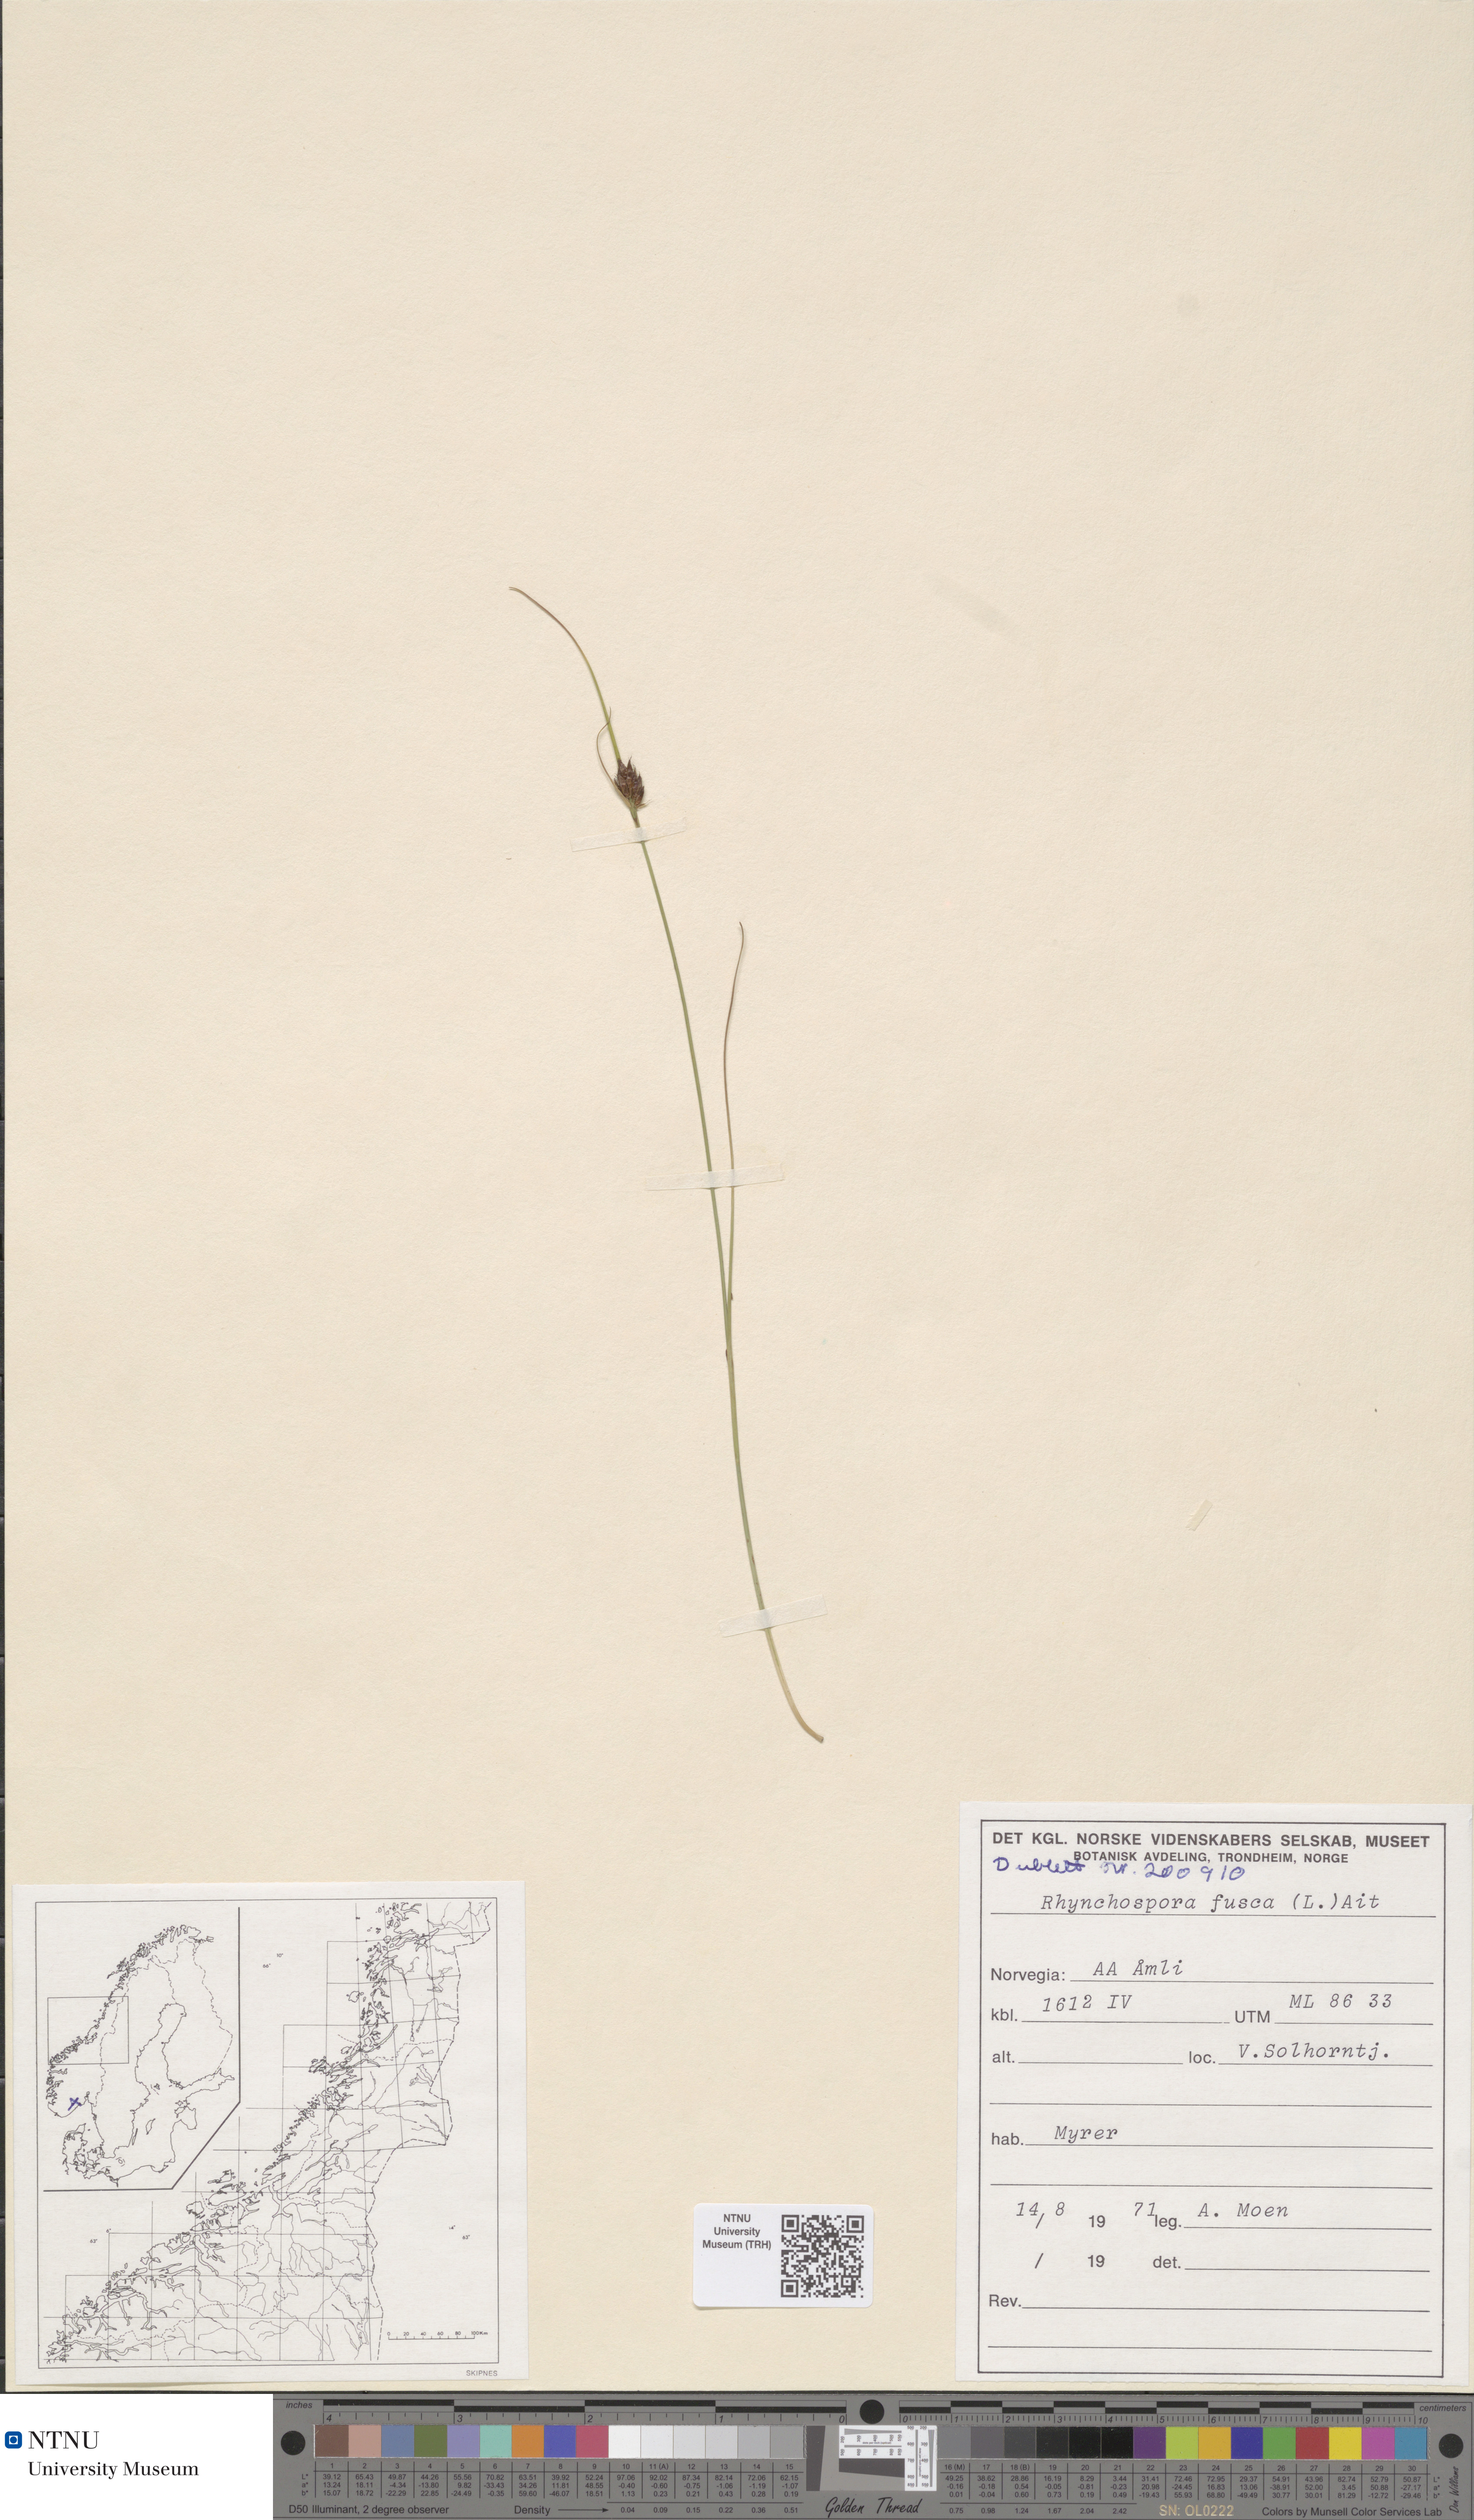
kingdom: Plantae
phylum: Tracheophyta
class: Liliopsida
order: Poales
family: Cyperaceae
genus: Rhynchospora
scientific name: Rhynchospora fusca
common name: Brown beak-sedge
